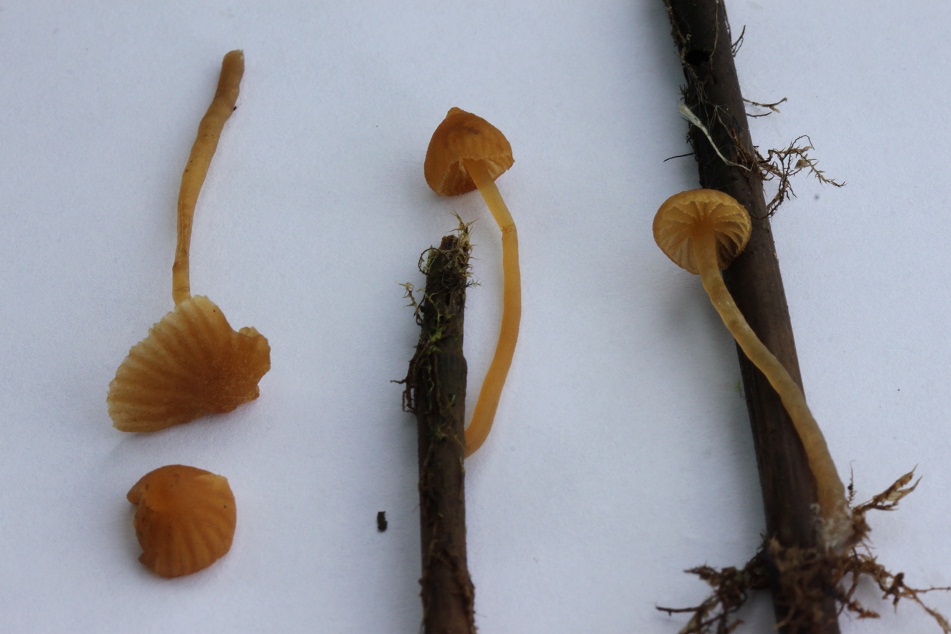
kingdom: Fungi
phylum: Basidiomycota
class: Agaricomycetes
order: Agaricales
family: Hymenogastraceae
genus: Galerina
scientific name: Galerina cinctula
